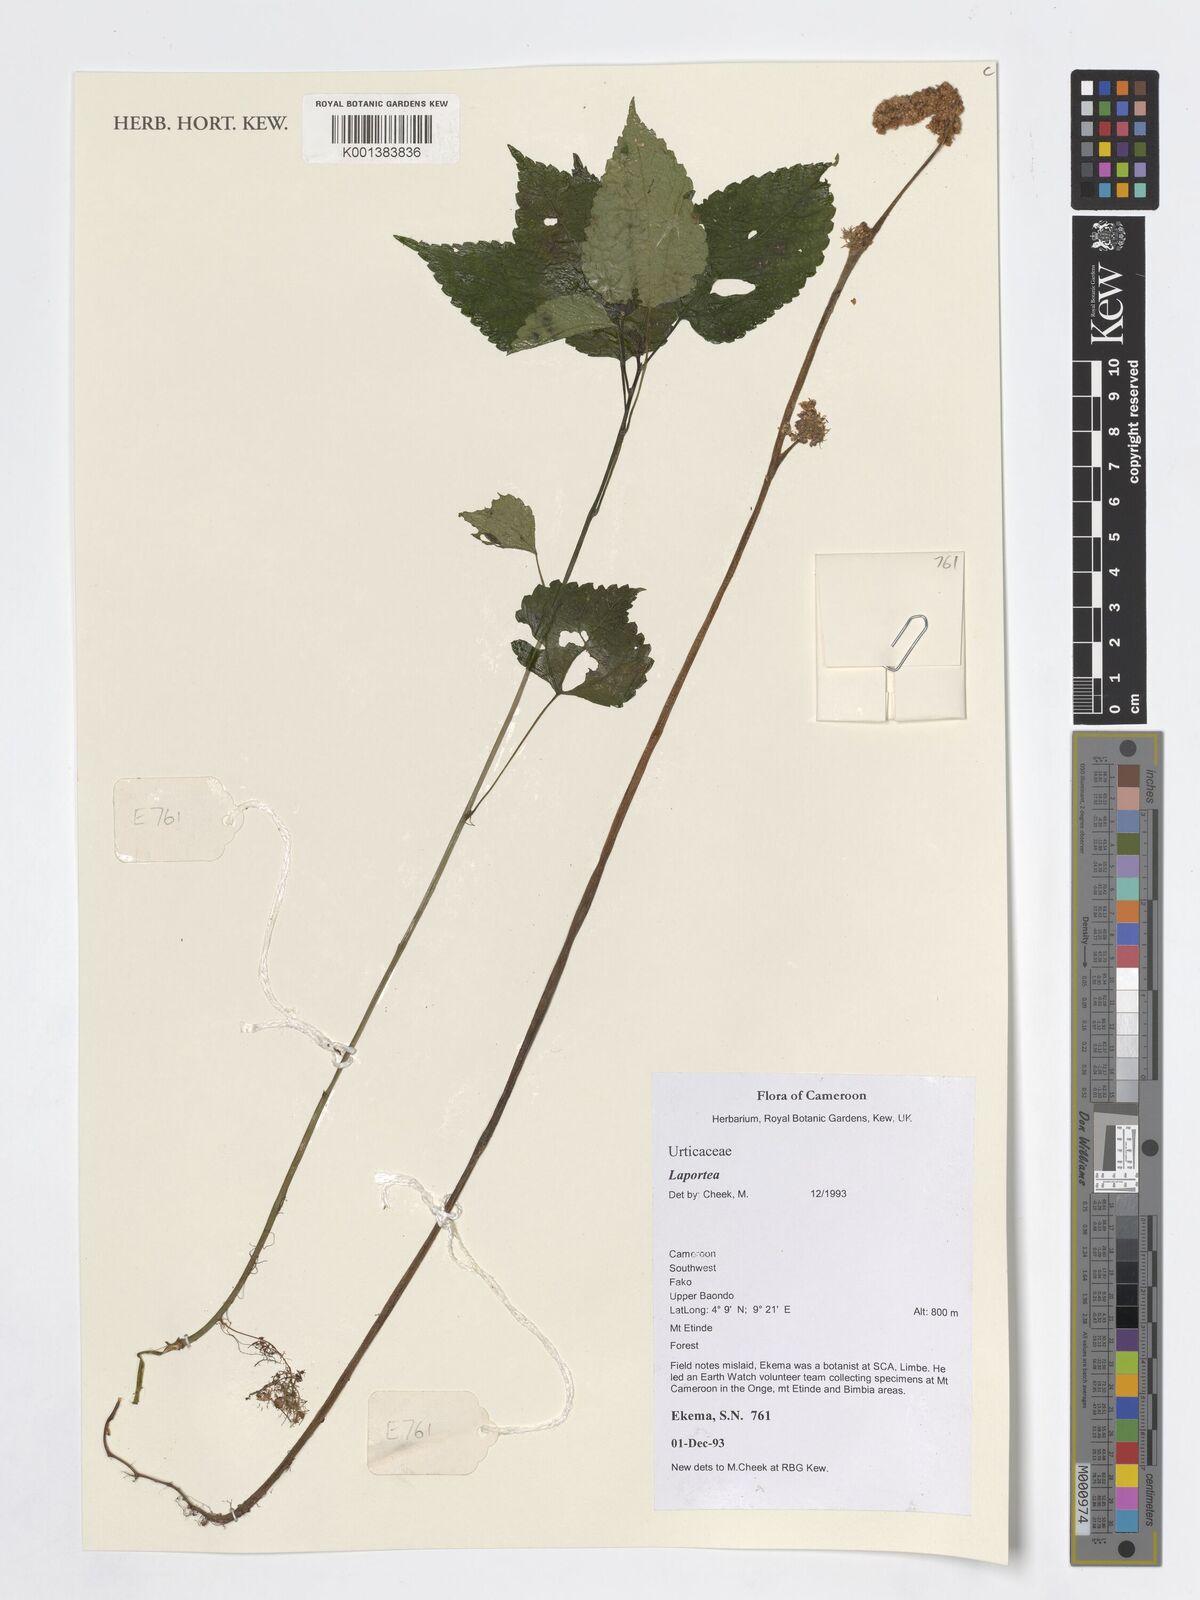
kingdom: Plantae
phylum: Tracheophyta
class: Magnoliopsida
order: Rosales
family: Urticaceae
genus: Laportea
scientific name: Laportea
